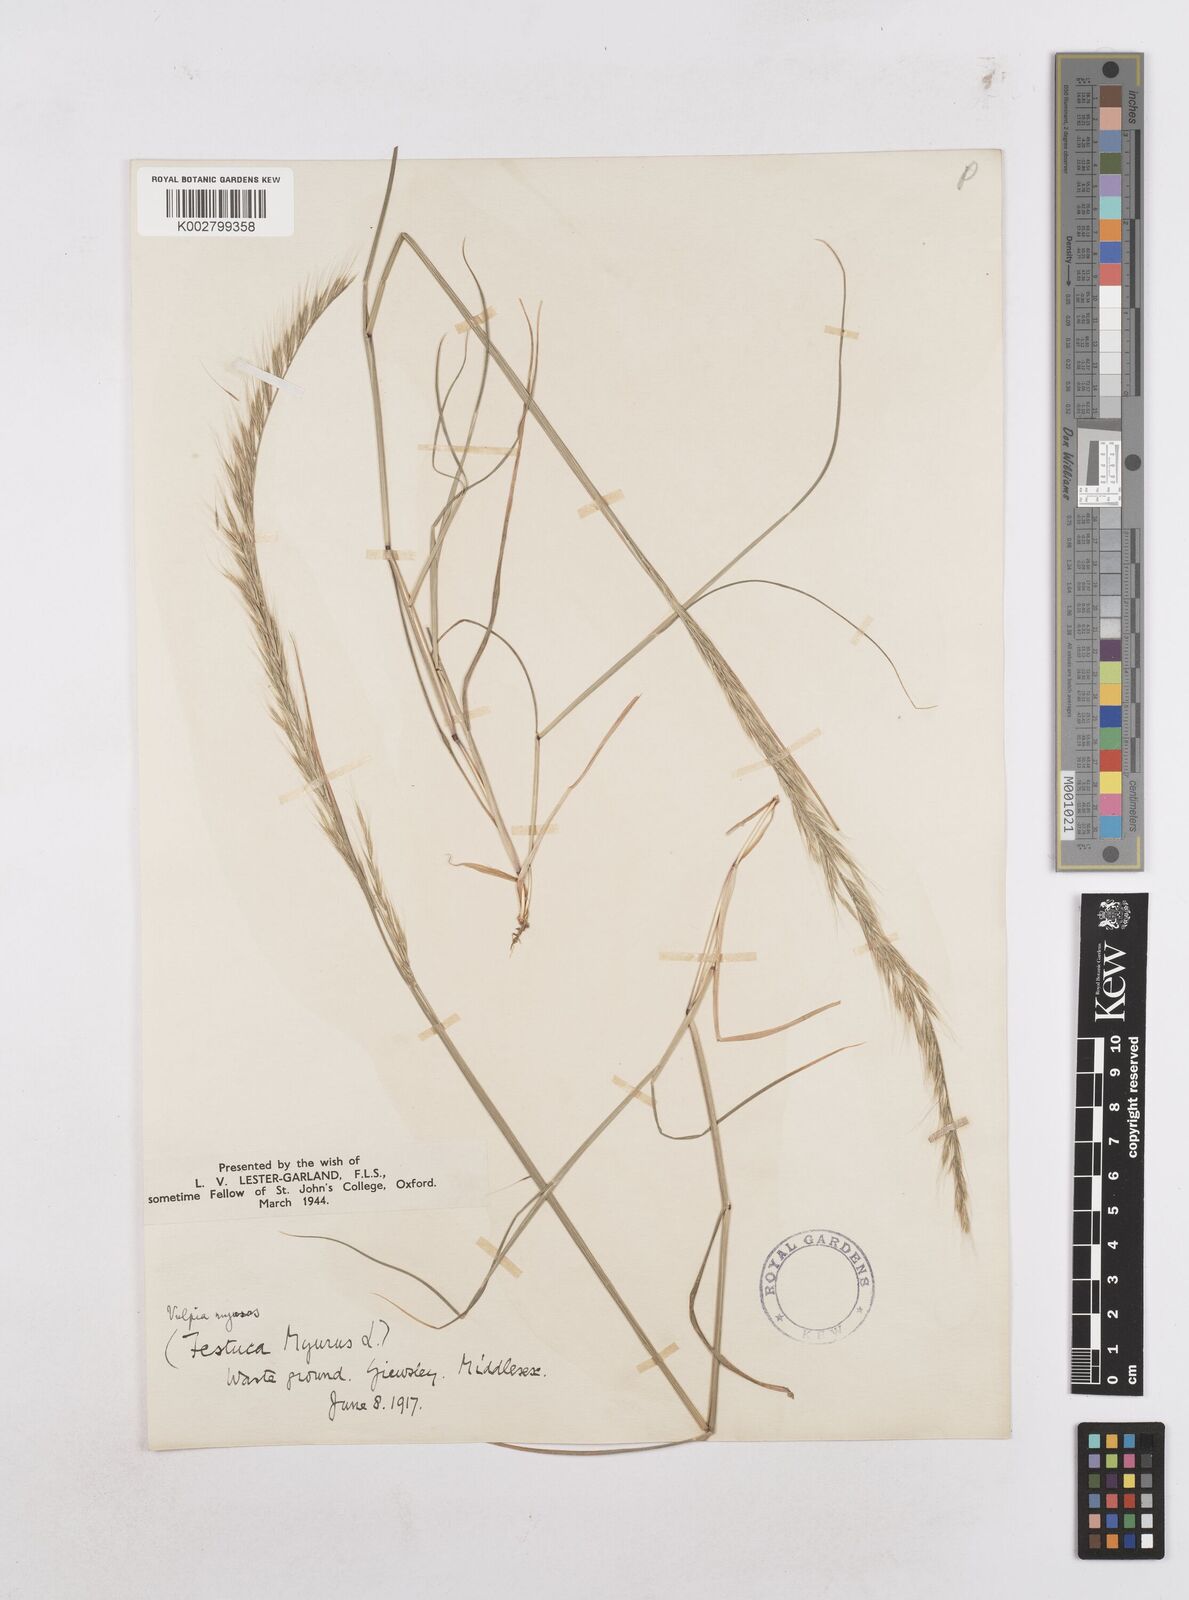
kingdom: Plantae
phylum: Tracheophyta
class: Liliopsida
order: Poales
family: Poaceae
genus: Festuca
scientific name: Festuca myuros
